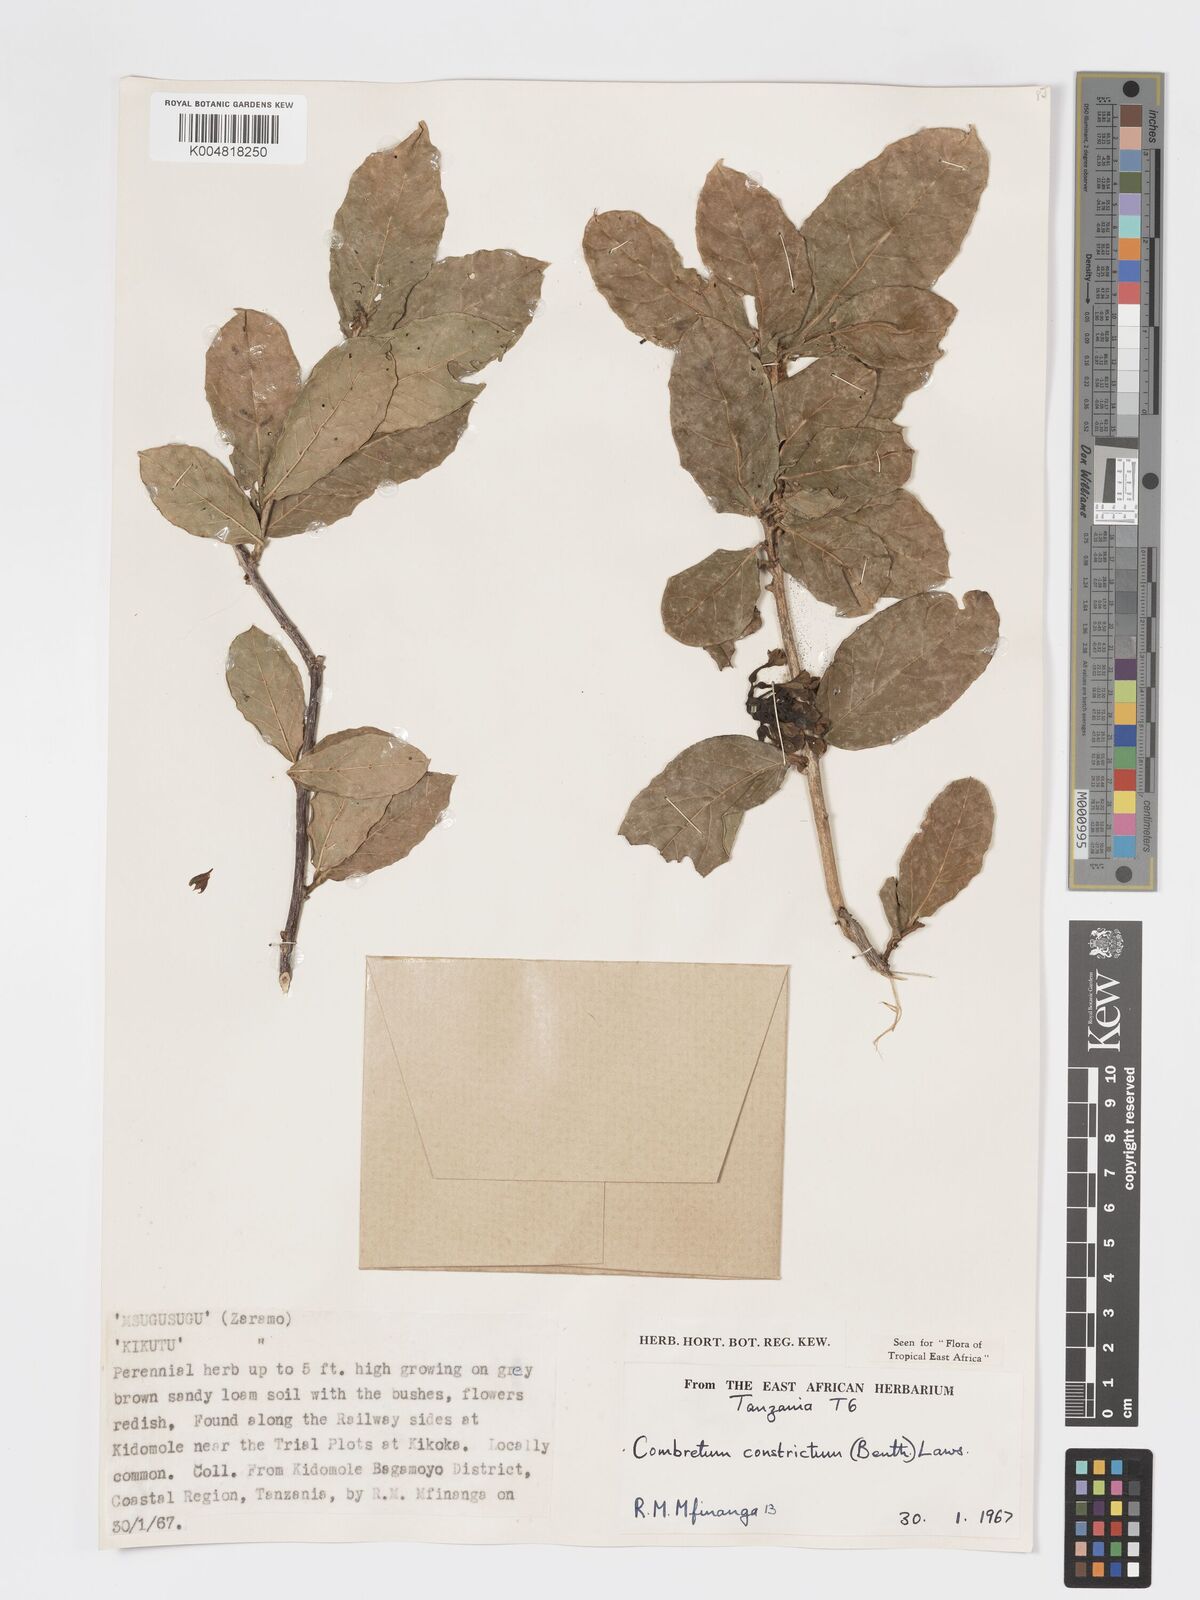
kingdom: Plantae
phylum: Tracheophyta
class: Magnoliopsida
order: Myrtales
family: Combretaceae
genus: Combretum
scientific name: Combretum constrictum
